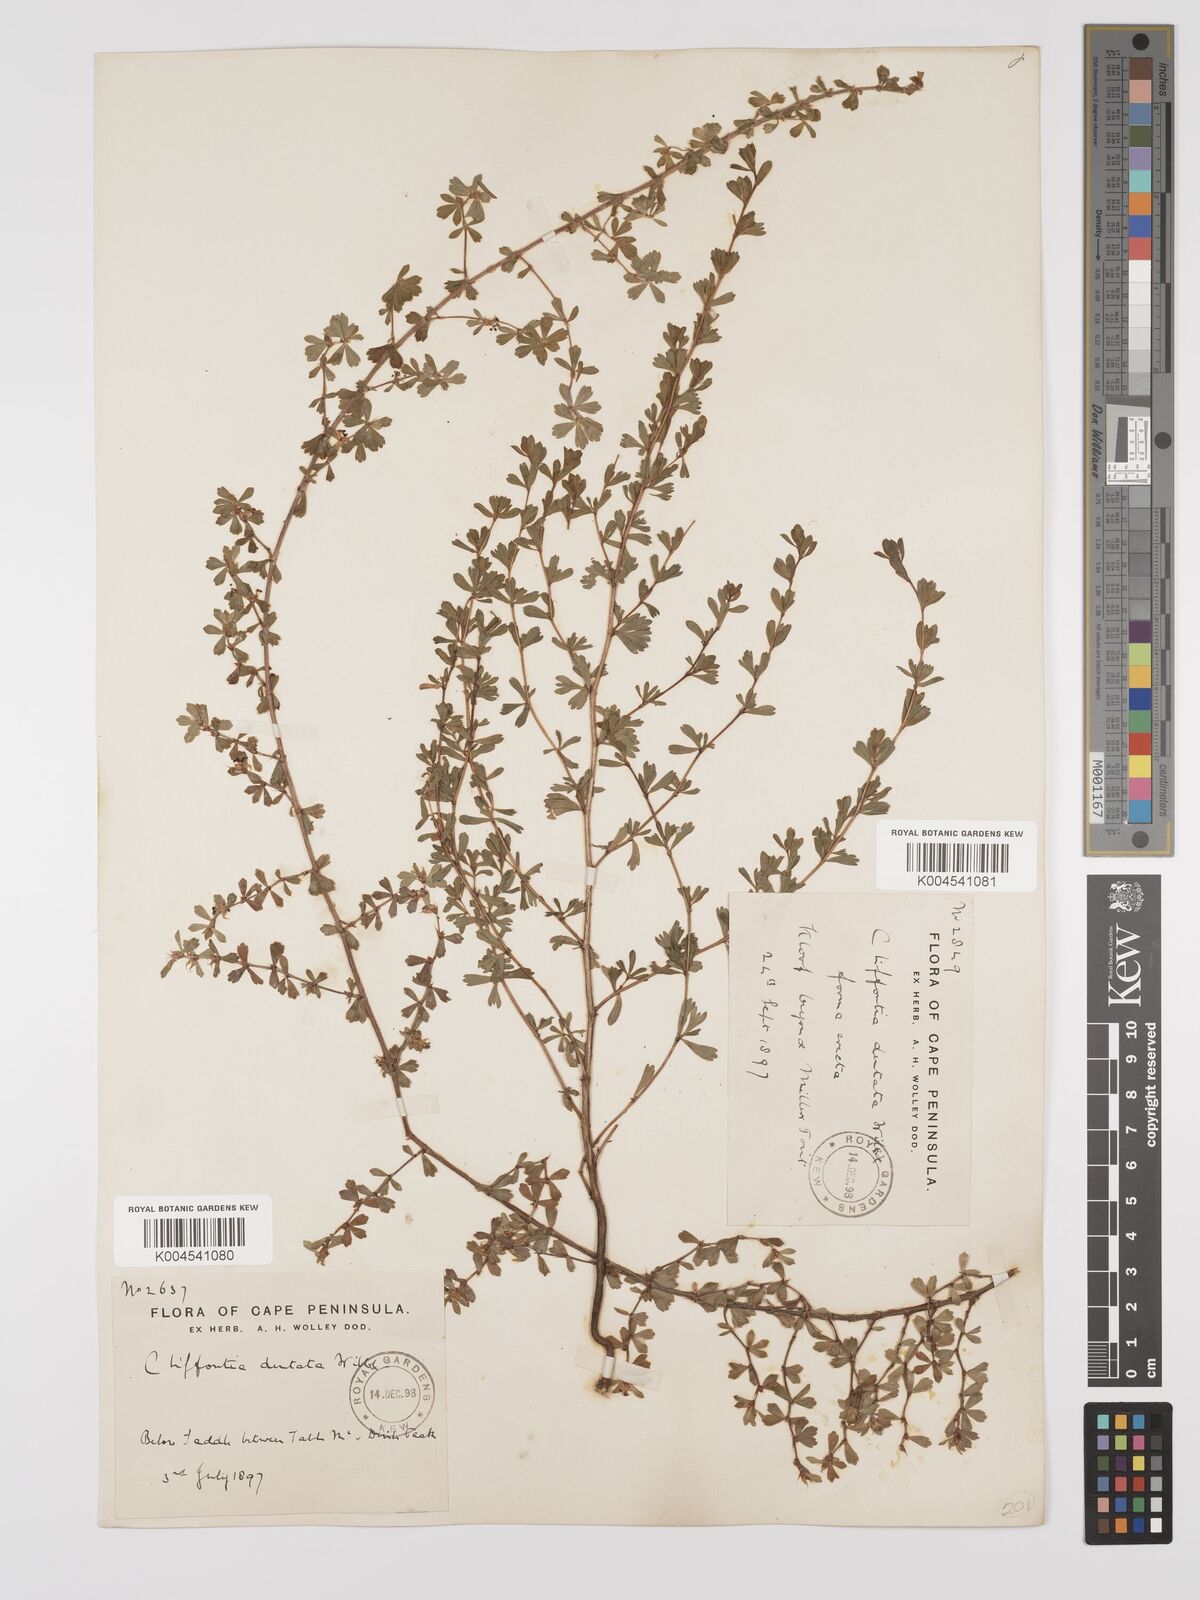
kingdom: Plantae
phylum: Tracheophyta
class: Magnoliopsida
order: Rosales
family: Rosaceae
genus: Cliffortia
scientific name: Cliffortia
